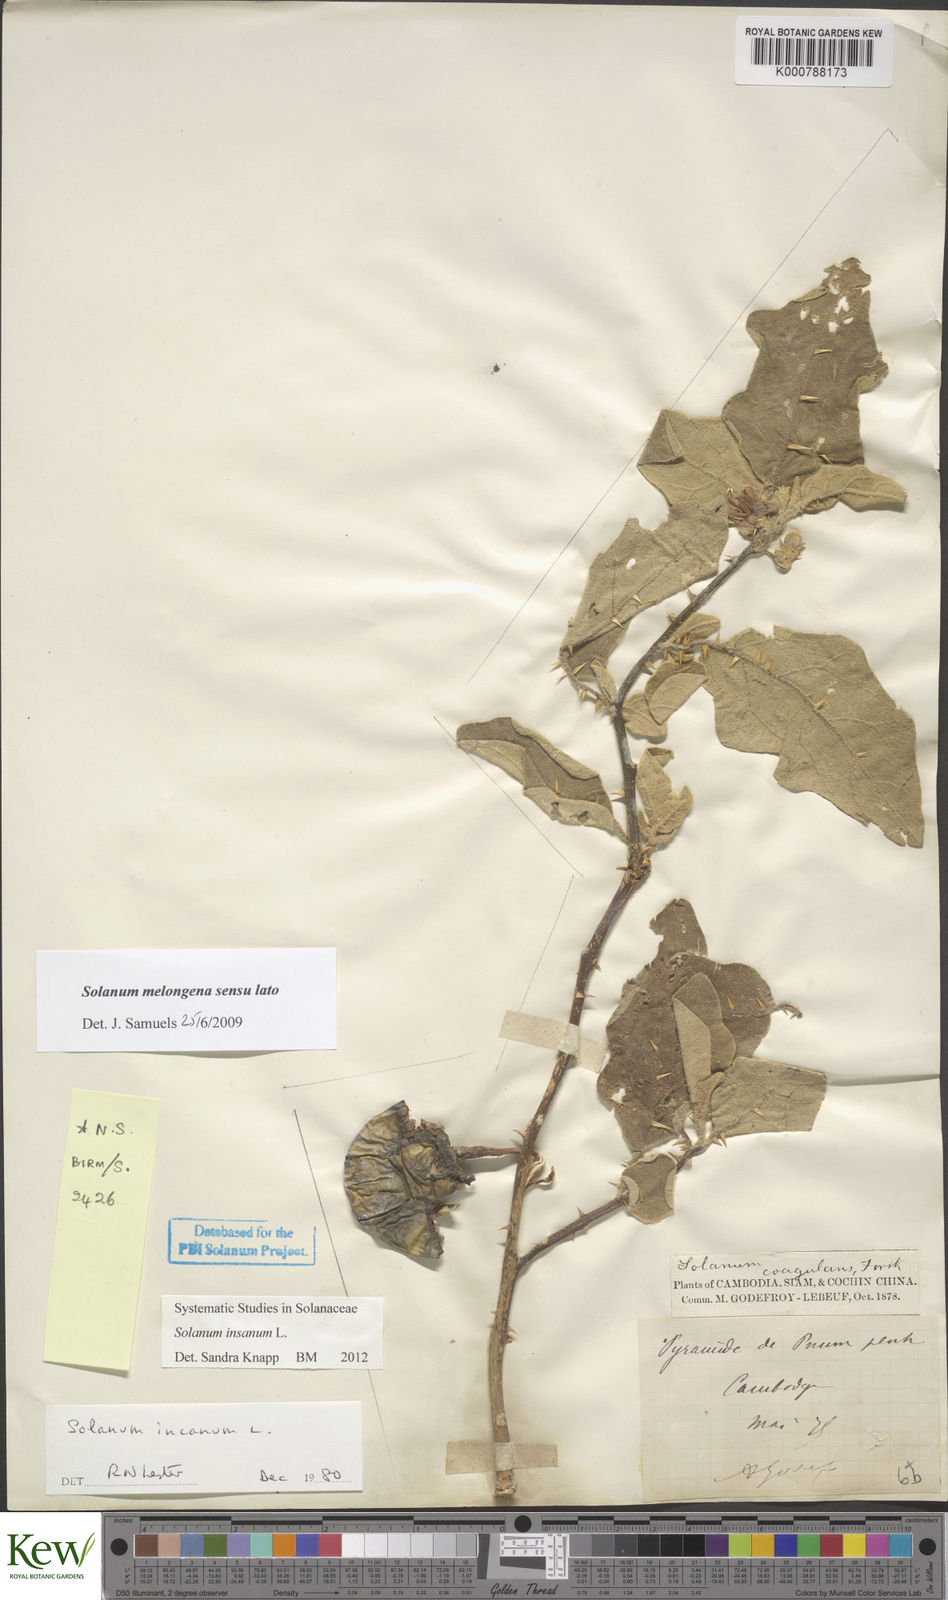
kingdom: Plantae
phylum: Tracheophyta
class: Magnoliopsida
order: Solanales
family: Solanaceae
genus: Solanum
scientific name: Solanum insanum
